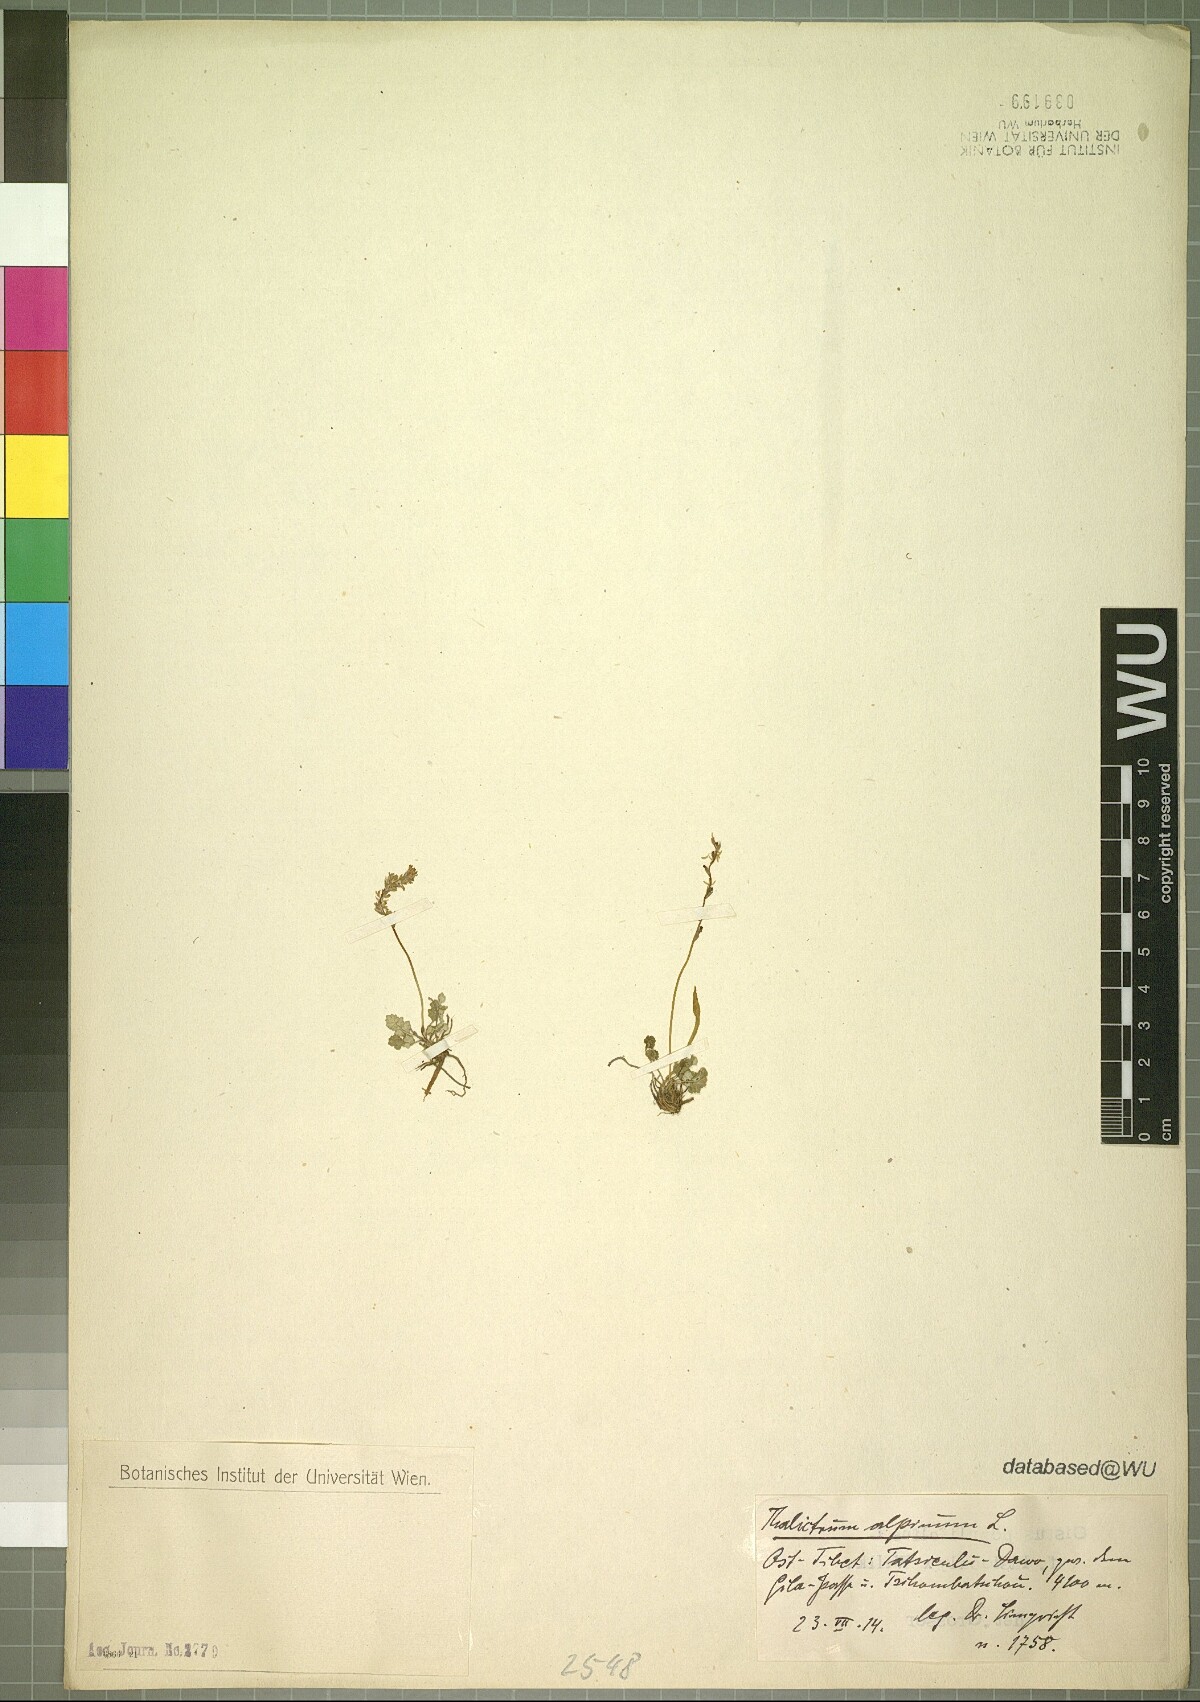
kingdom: Plantae
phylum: Tracheophyta
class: Magnoliopsida
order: Ranunculales
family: Ranunculaceae
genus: Thalictrum
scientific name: Thalictrum alpinum
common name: Alpine meadow-rue
